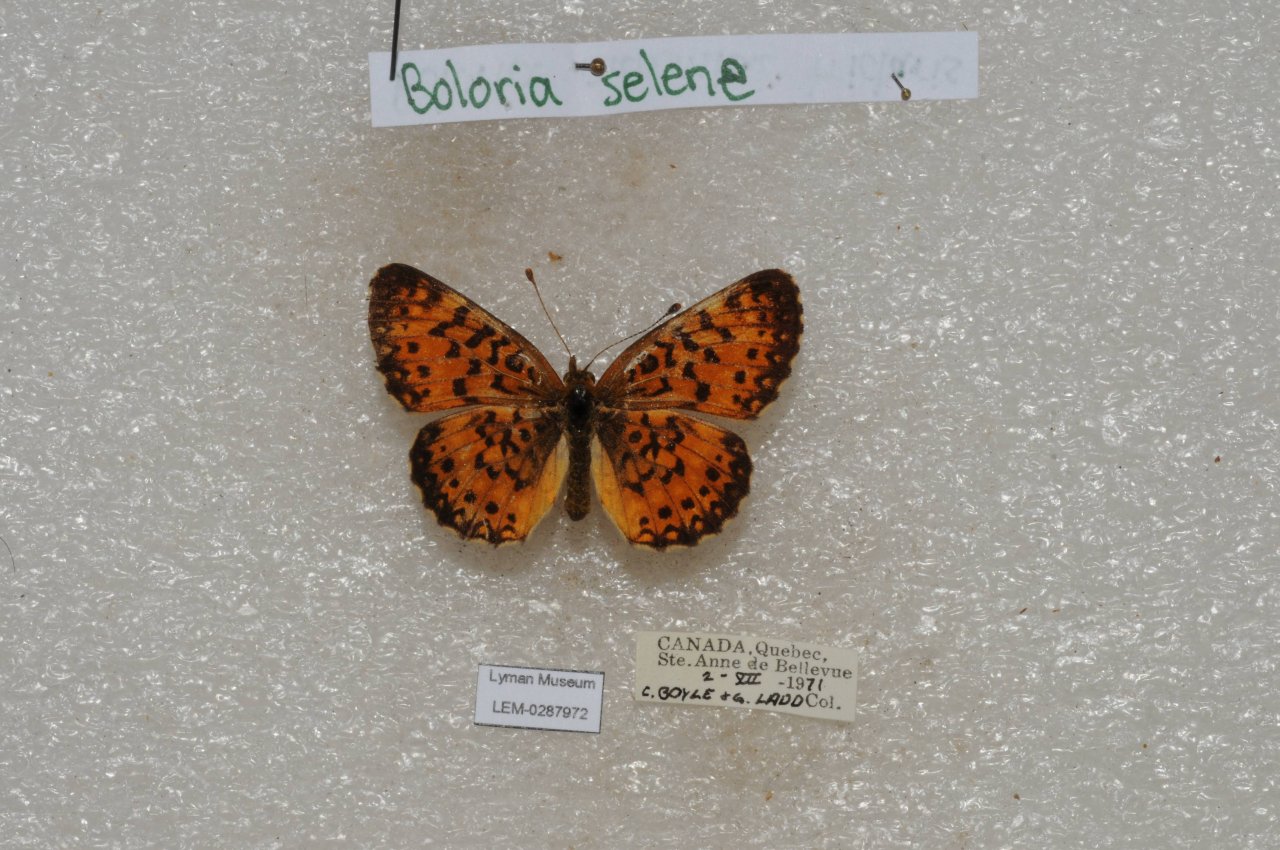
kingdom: Animalia
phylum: Arthropoda
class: Insecta
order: Lepidoptera
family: Nymphalidae
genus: Boloria
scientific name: Boloria selene
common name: Silver-bordered Fritillary
